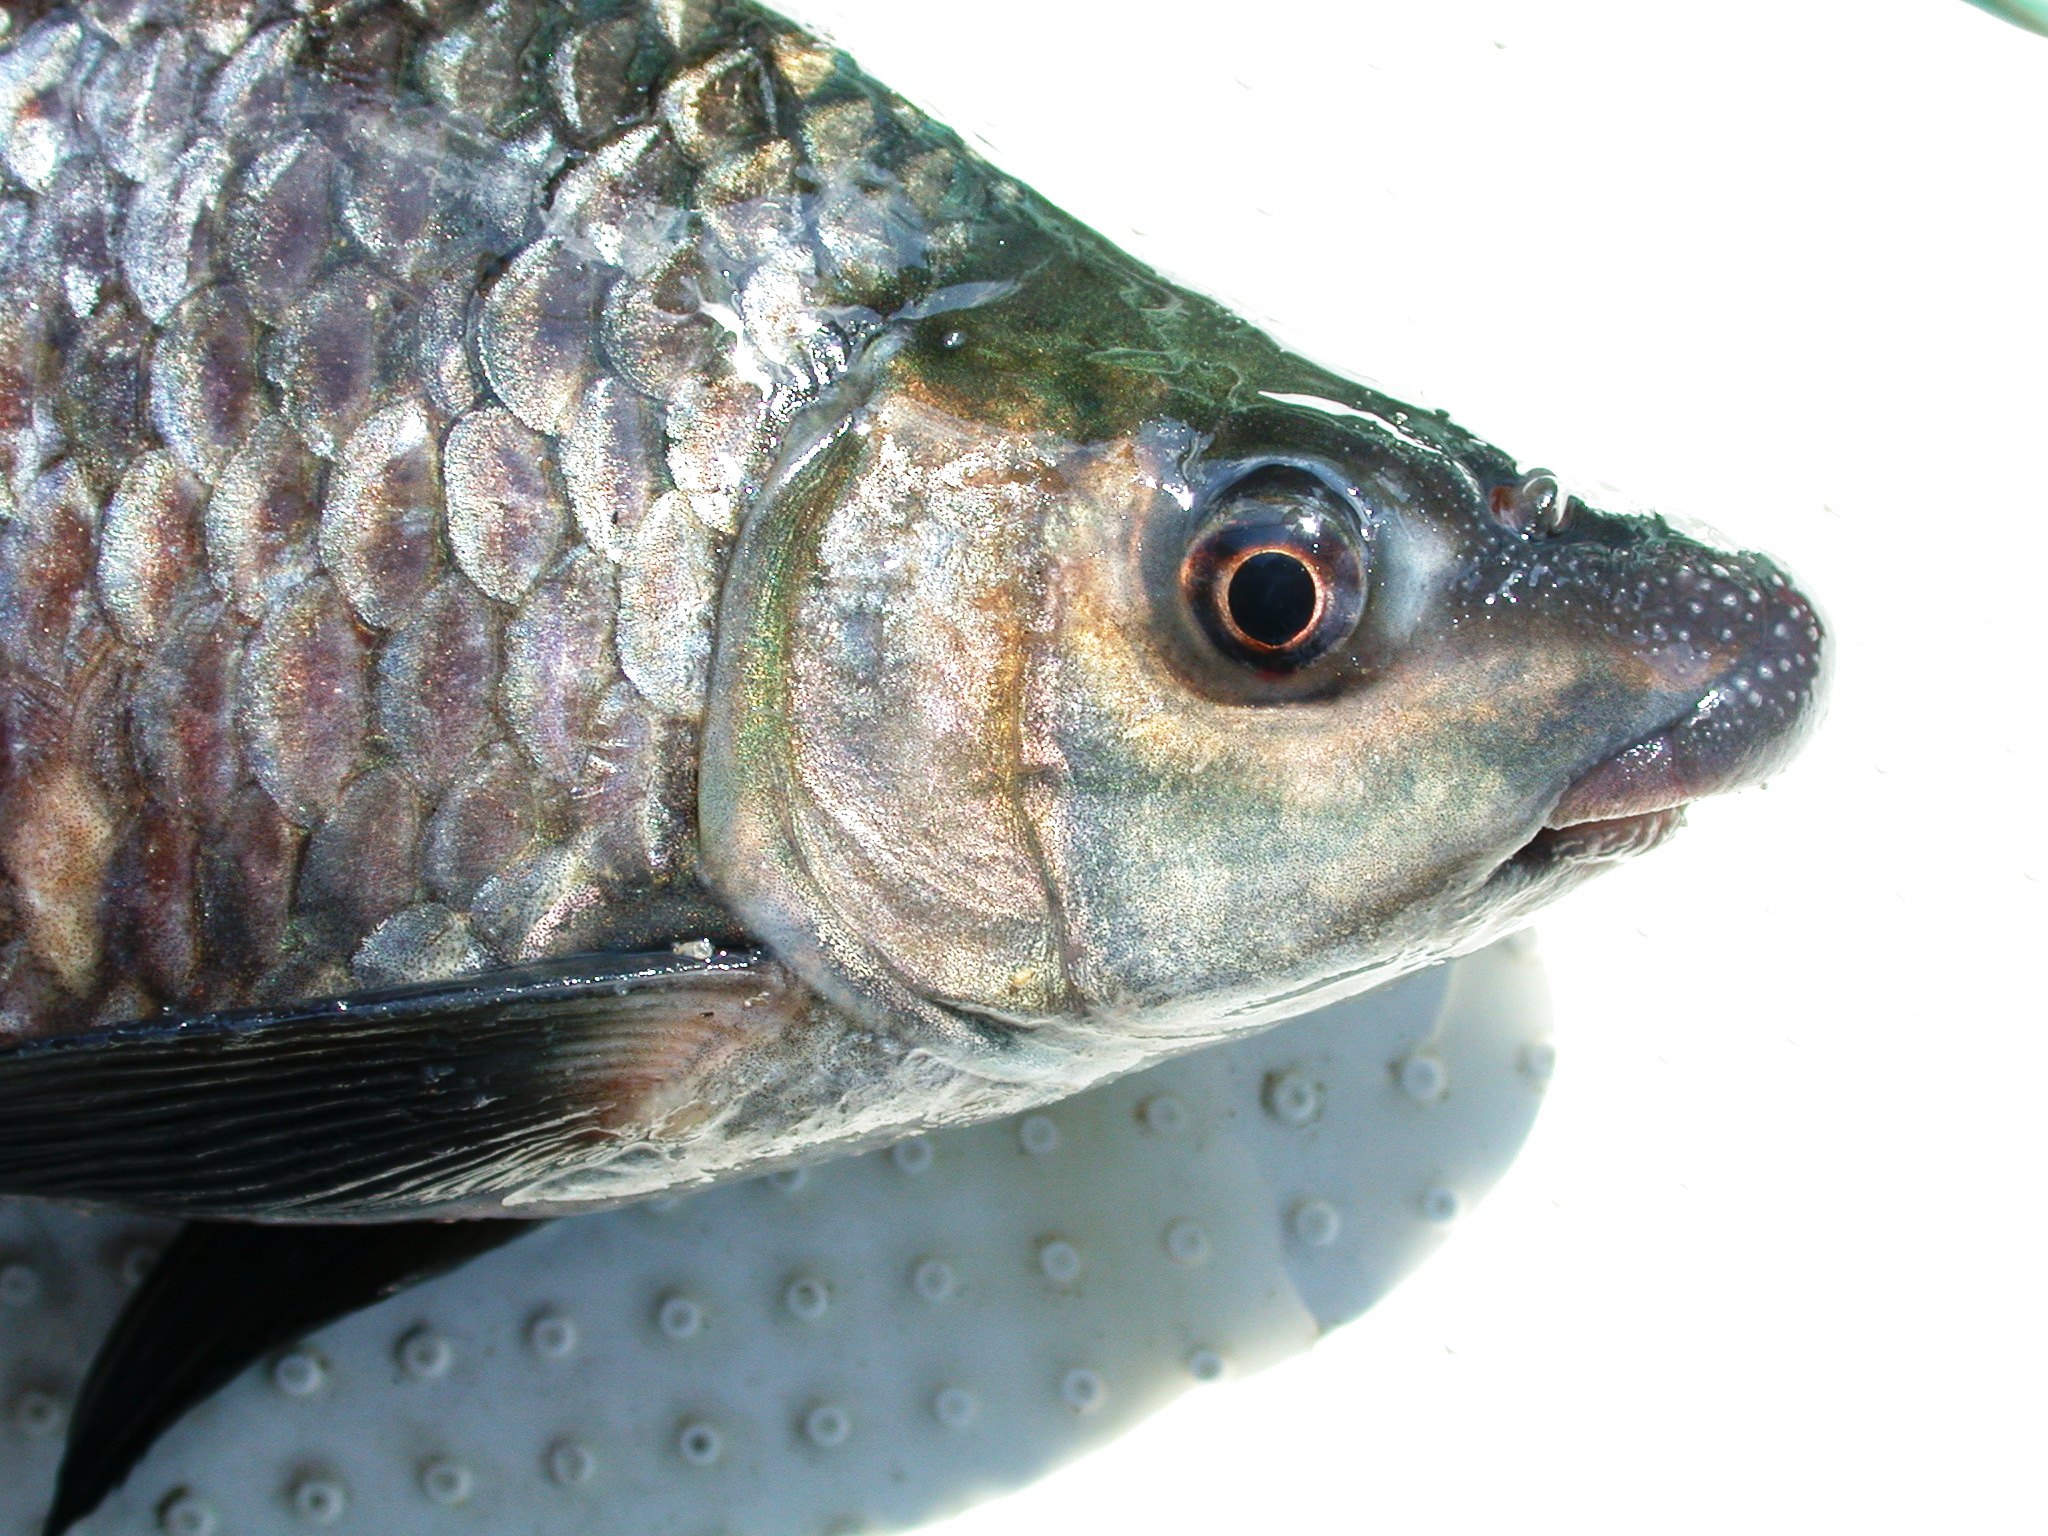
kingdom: Animalia
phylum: Chordata
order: Cypriniformes
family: Cyprinidae
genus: Labeo
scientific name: Labeo congoro
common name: Purple labeo
